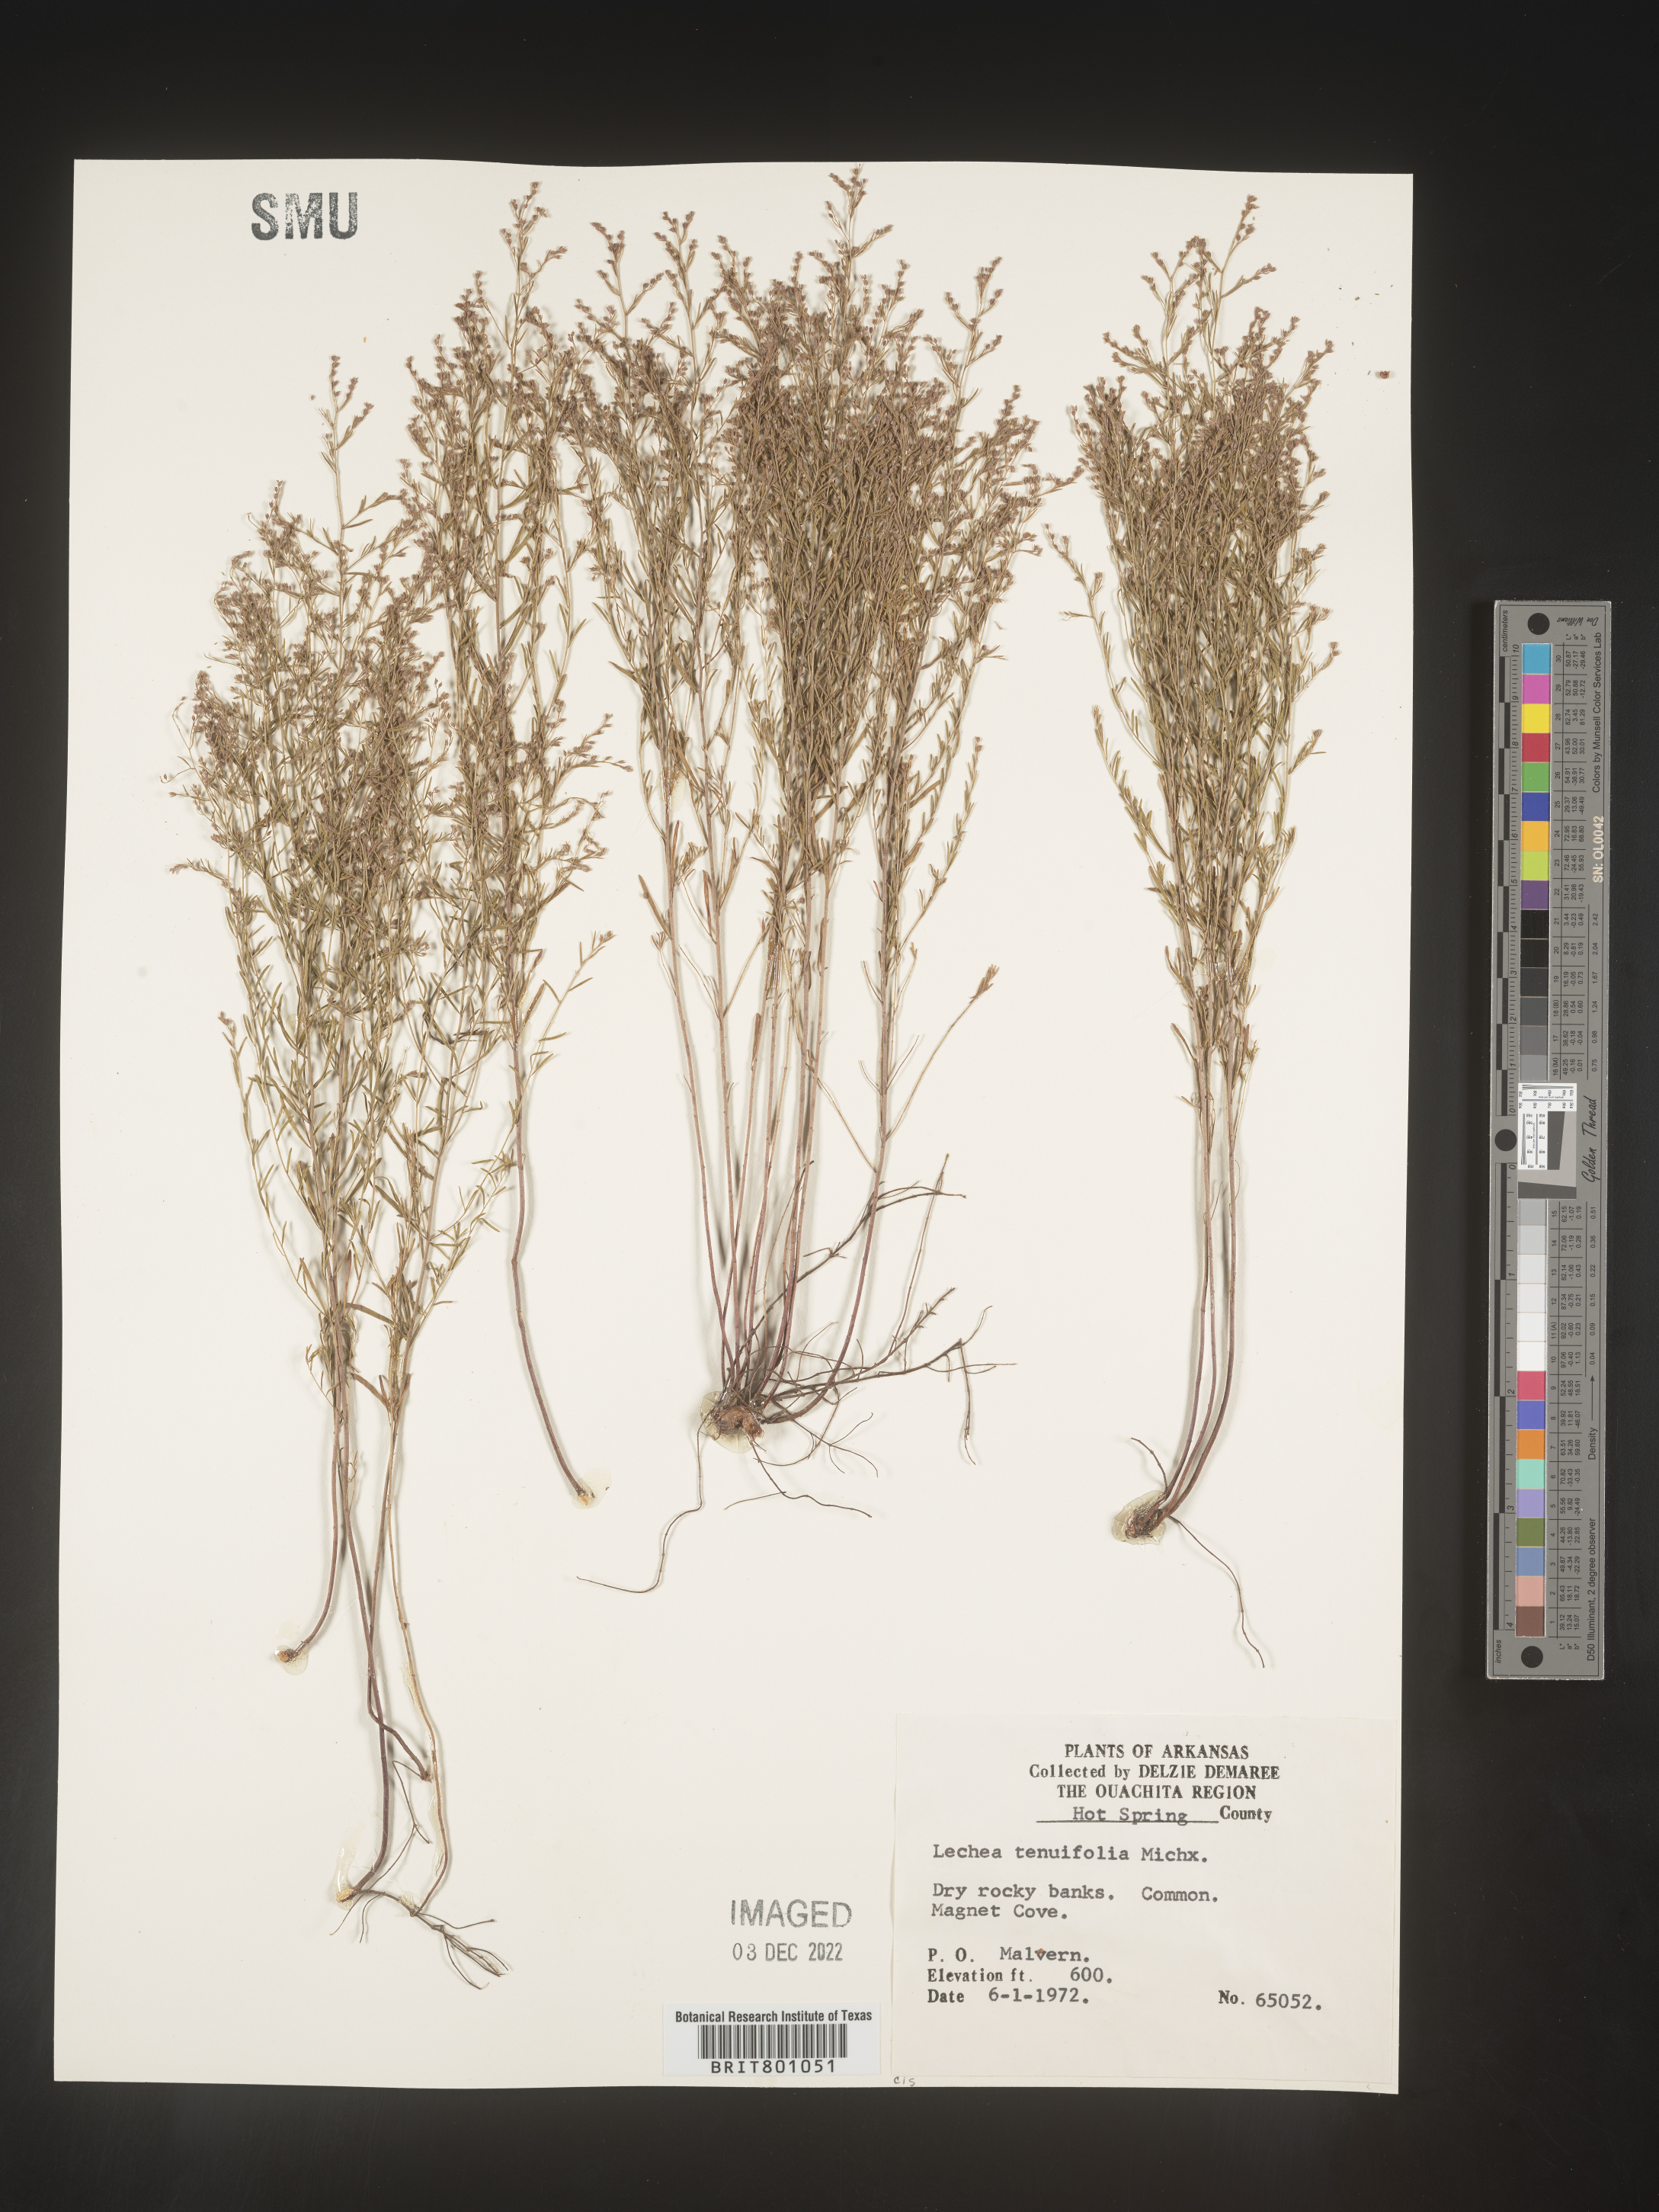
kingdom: Plantae
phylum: Tracheophyta
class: Magnoliopsida
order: Malvales
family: Cistaceae
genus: Lechea
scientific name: Lechea tenuifolia
